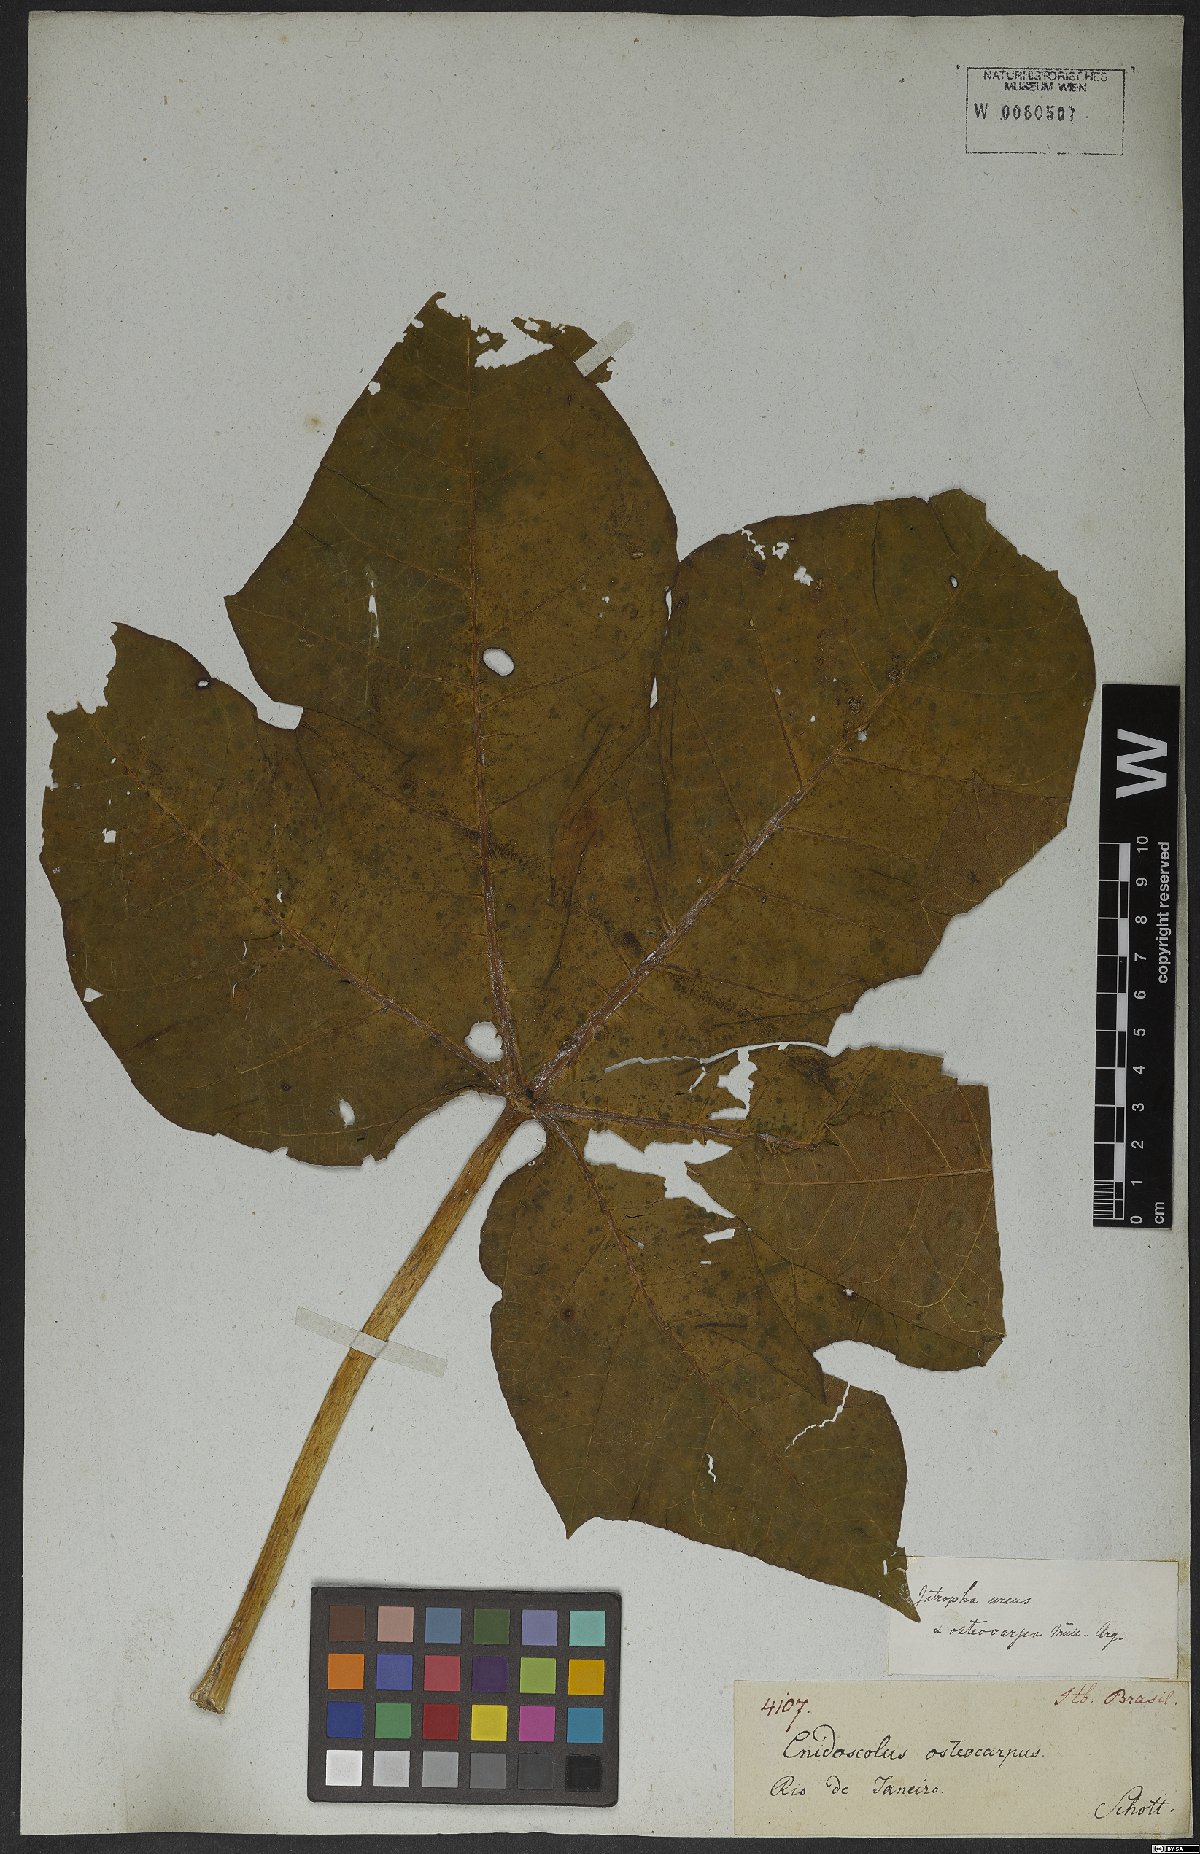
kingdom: Plantae
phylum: Tracheophyta
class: Magnoliopsida
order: Malpighiales
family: Euphorbiaceae
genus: Cnidoscolus
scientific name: Cnidoscolus urens
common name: Bull-nettle
